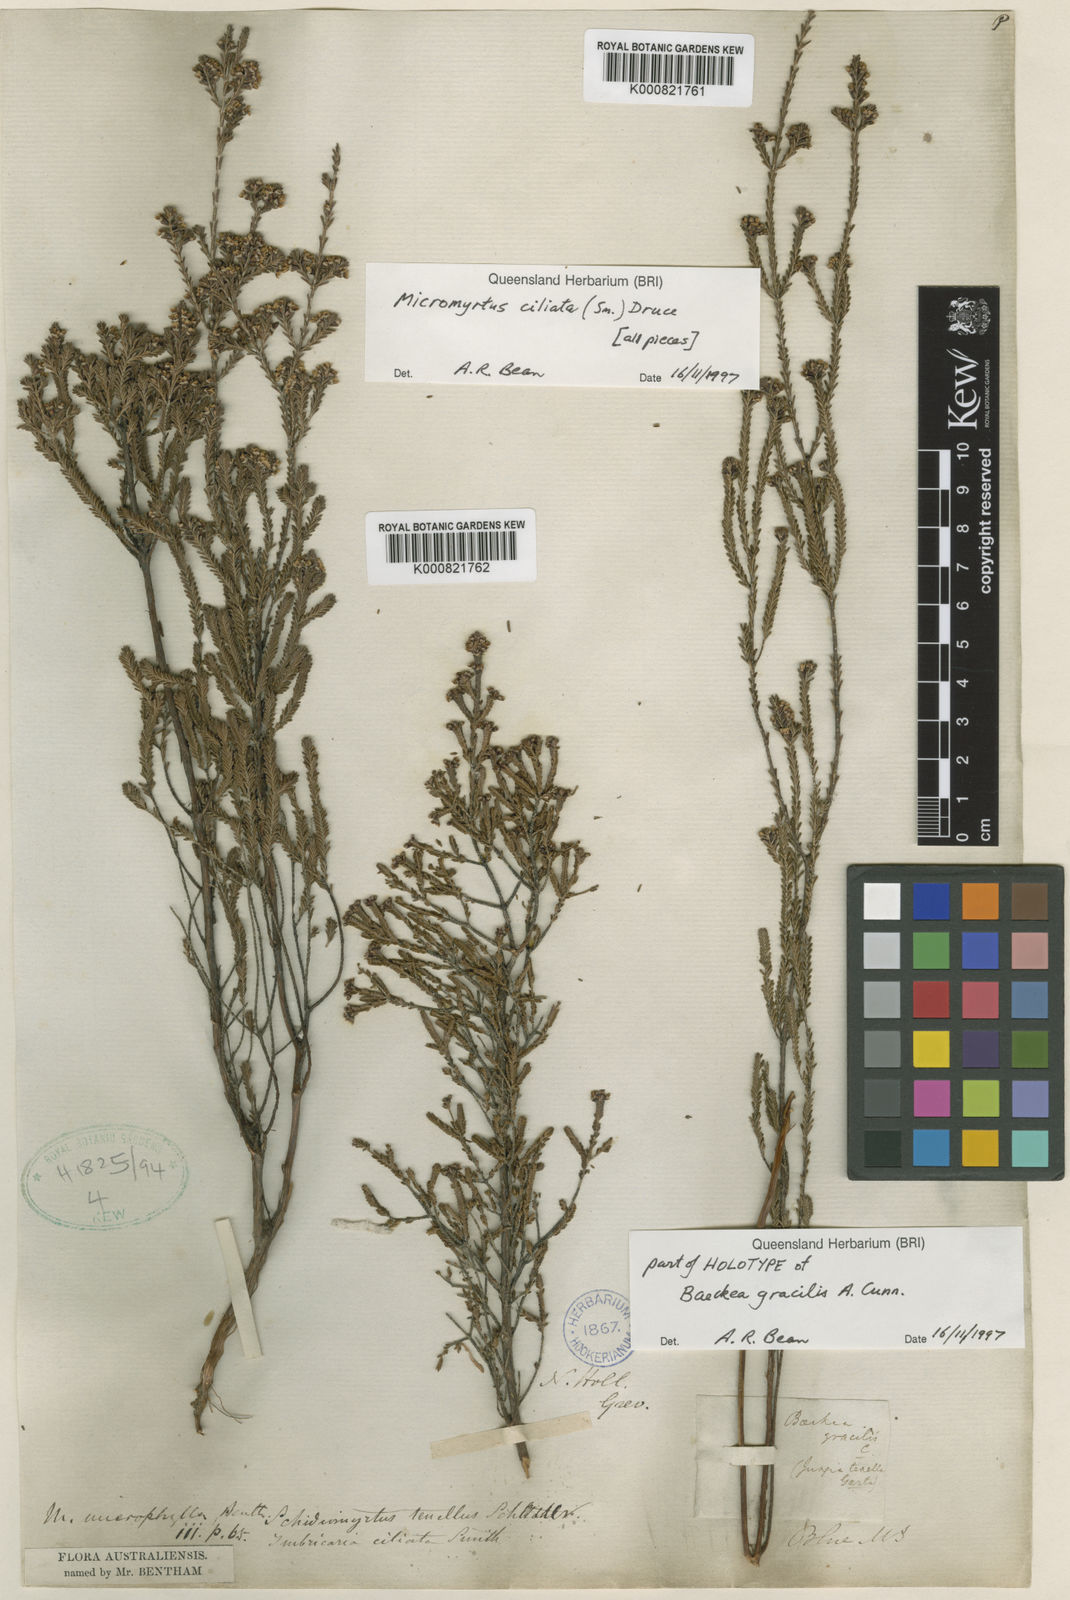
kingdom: Plantae
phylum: Tracheophyta
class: Magnoliopsida
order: Myrtales
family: Myrtaceae
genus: Micromyrtus
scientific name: Micromyrtus ciliata
